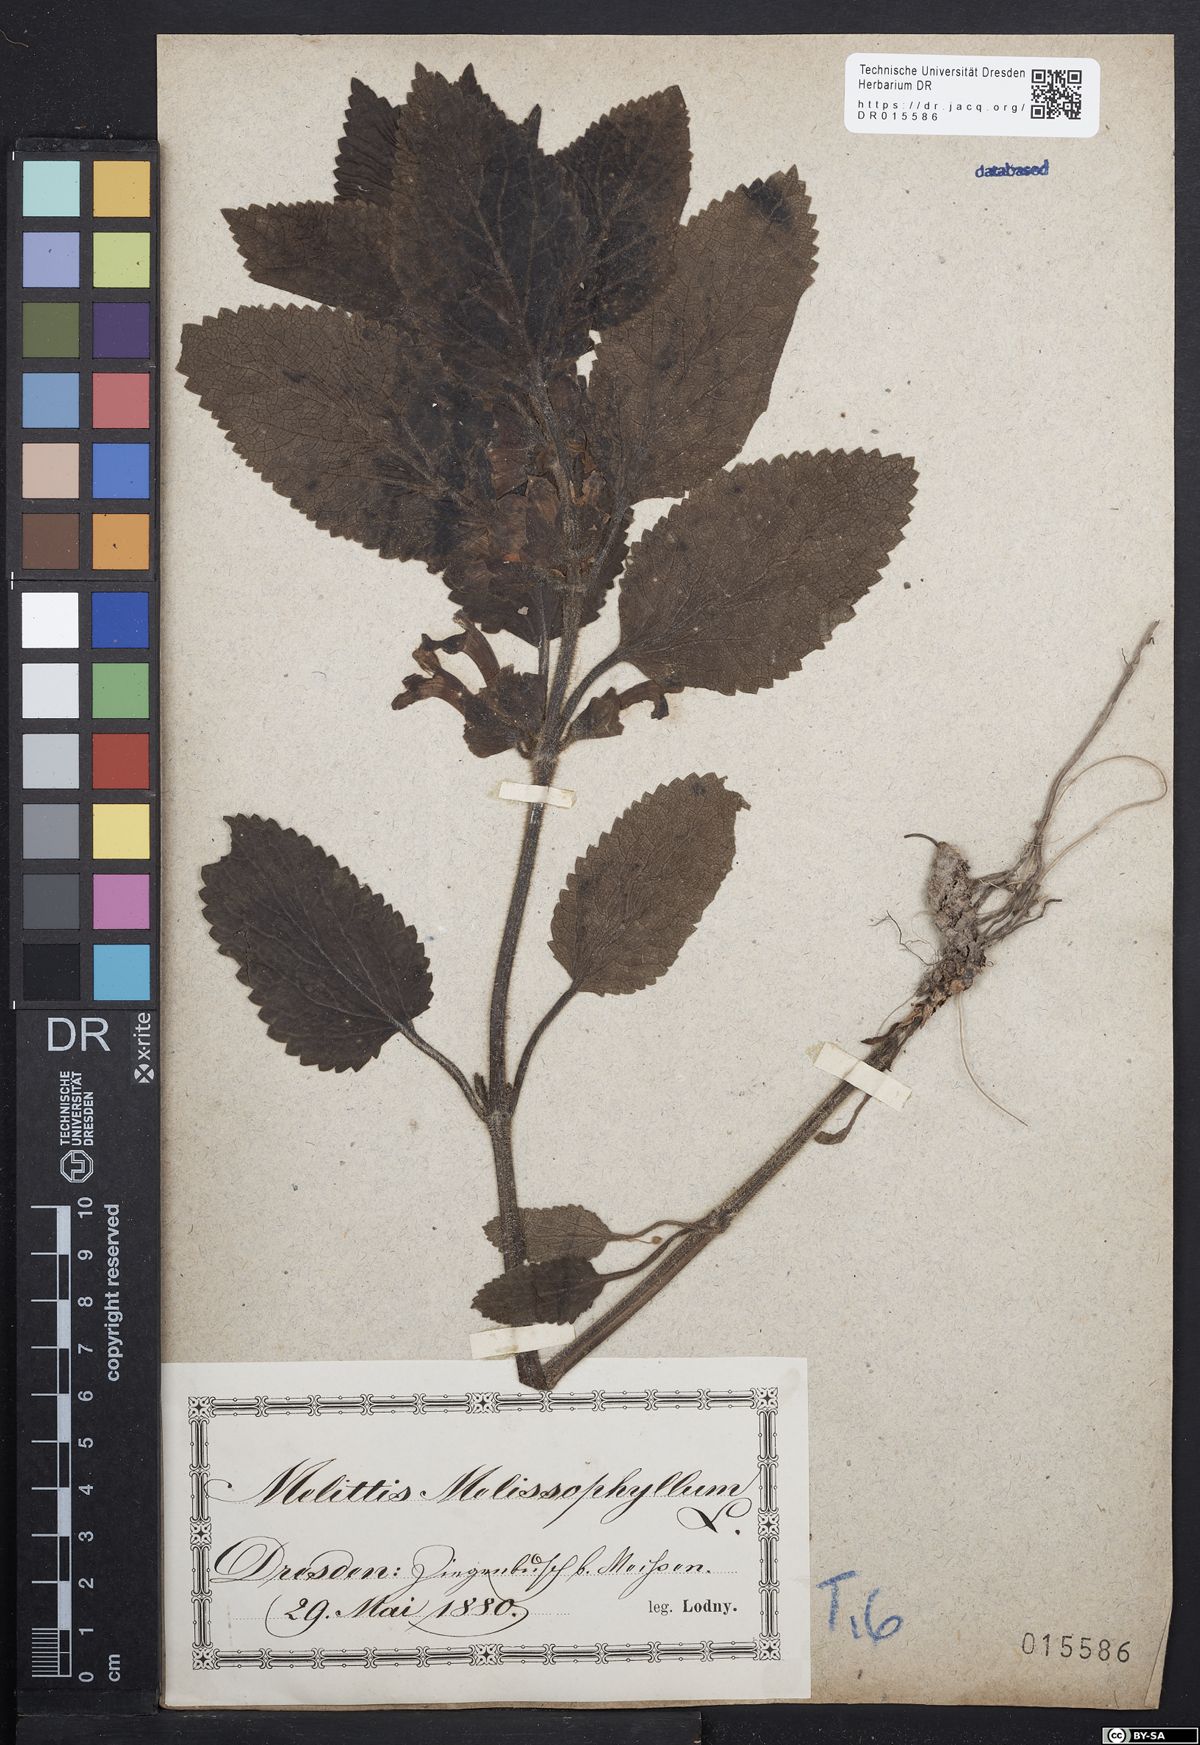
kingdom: Plantae
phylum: Tracheophyta
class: Magnoliopsida
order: Lamiales
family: Lamiaceae
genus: Melittis
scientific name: Melittis melissophyllum
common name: Bastard balm
